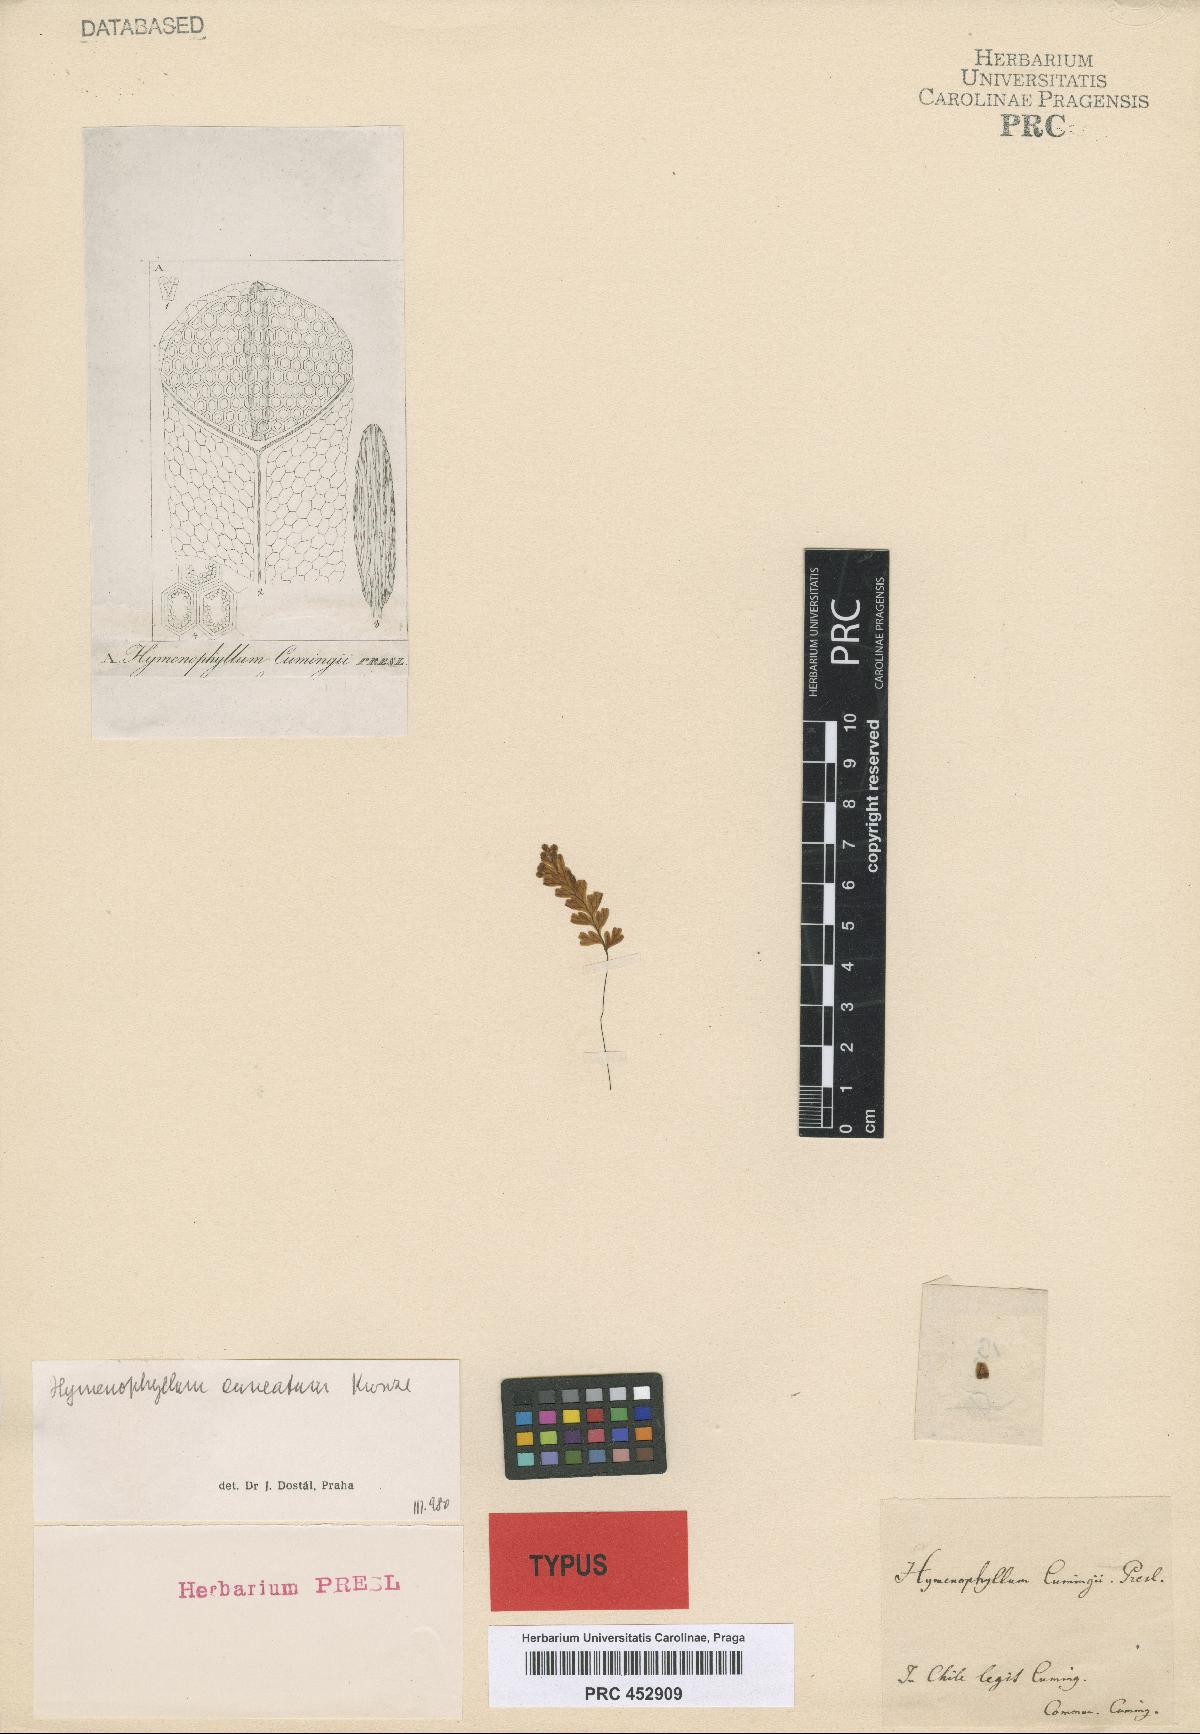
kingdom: Plantae
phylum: Tracheophyta
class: Polypodiopsida
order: Hymenophyllales
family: Hymenophyllaceae
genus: Hymenophyllum
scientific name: Hymenophyllum cuneatum
